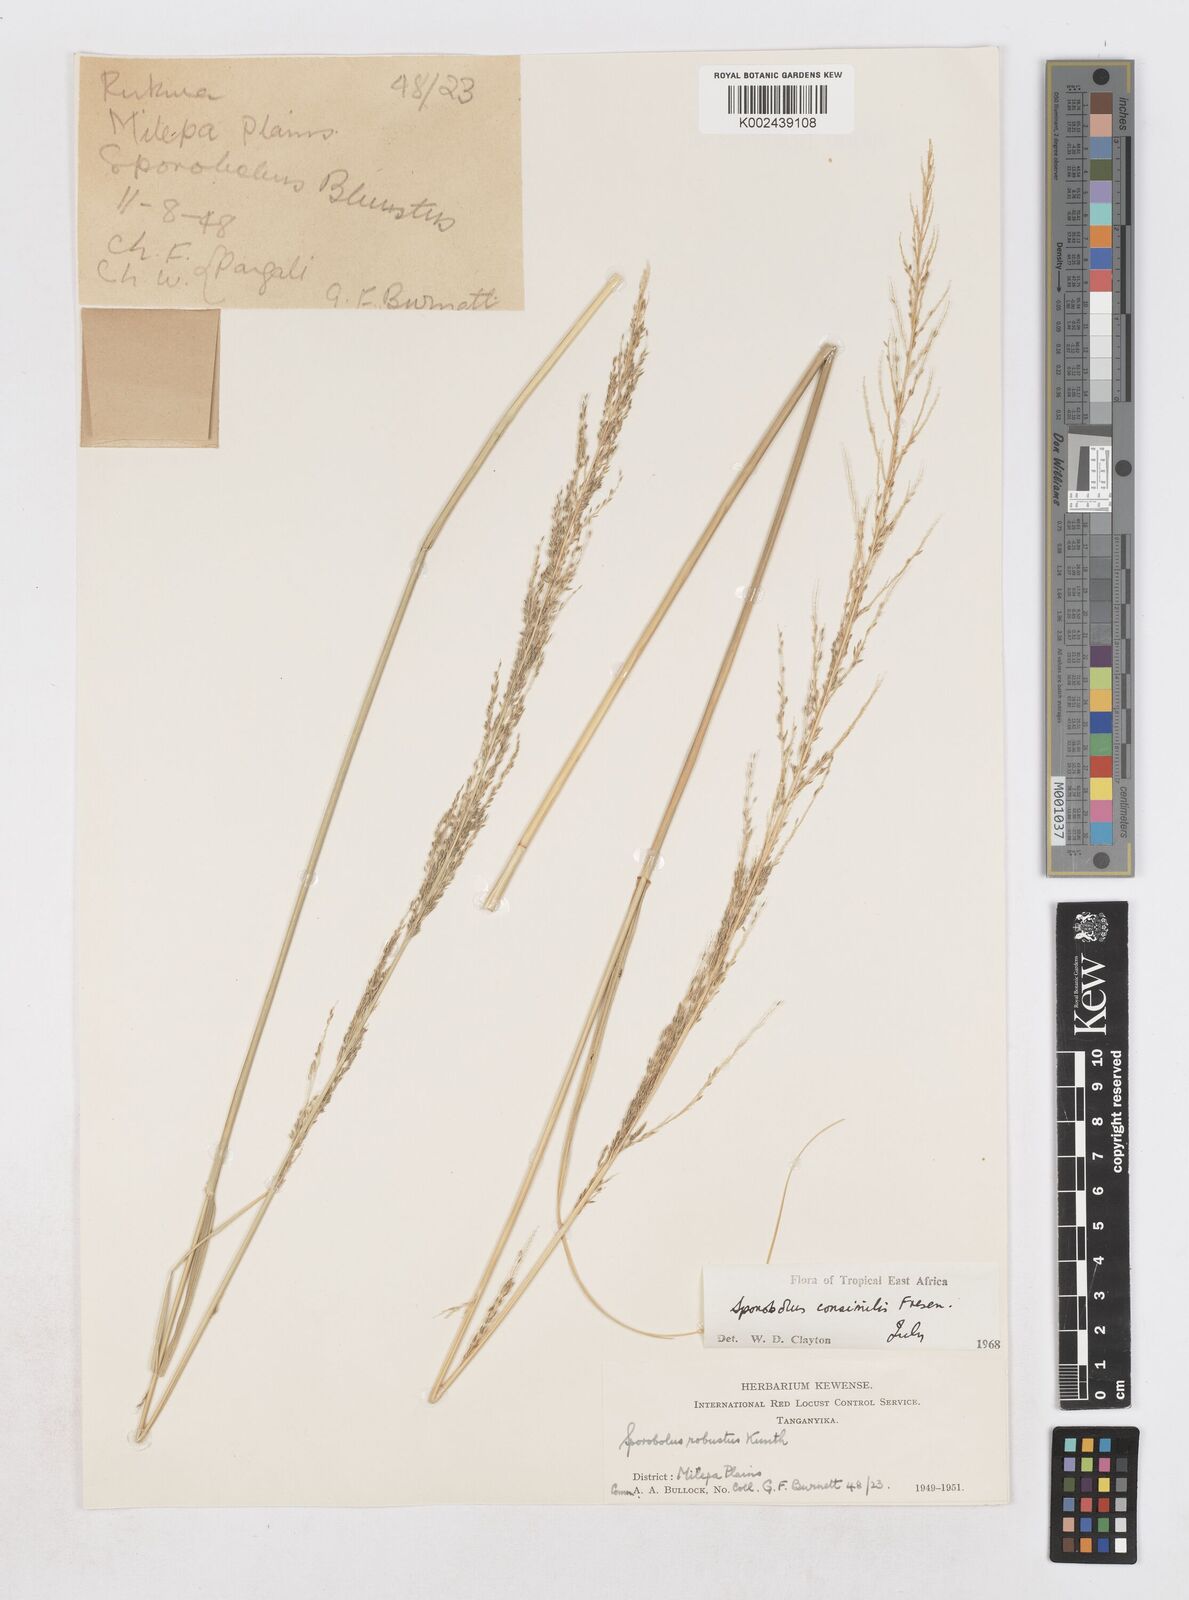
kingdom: Plantae
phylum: Tracheophyta
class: Liliopsida
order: Poales
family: Poaceae
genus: Sporobolus
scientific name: Sporobolus consimilis
